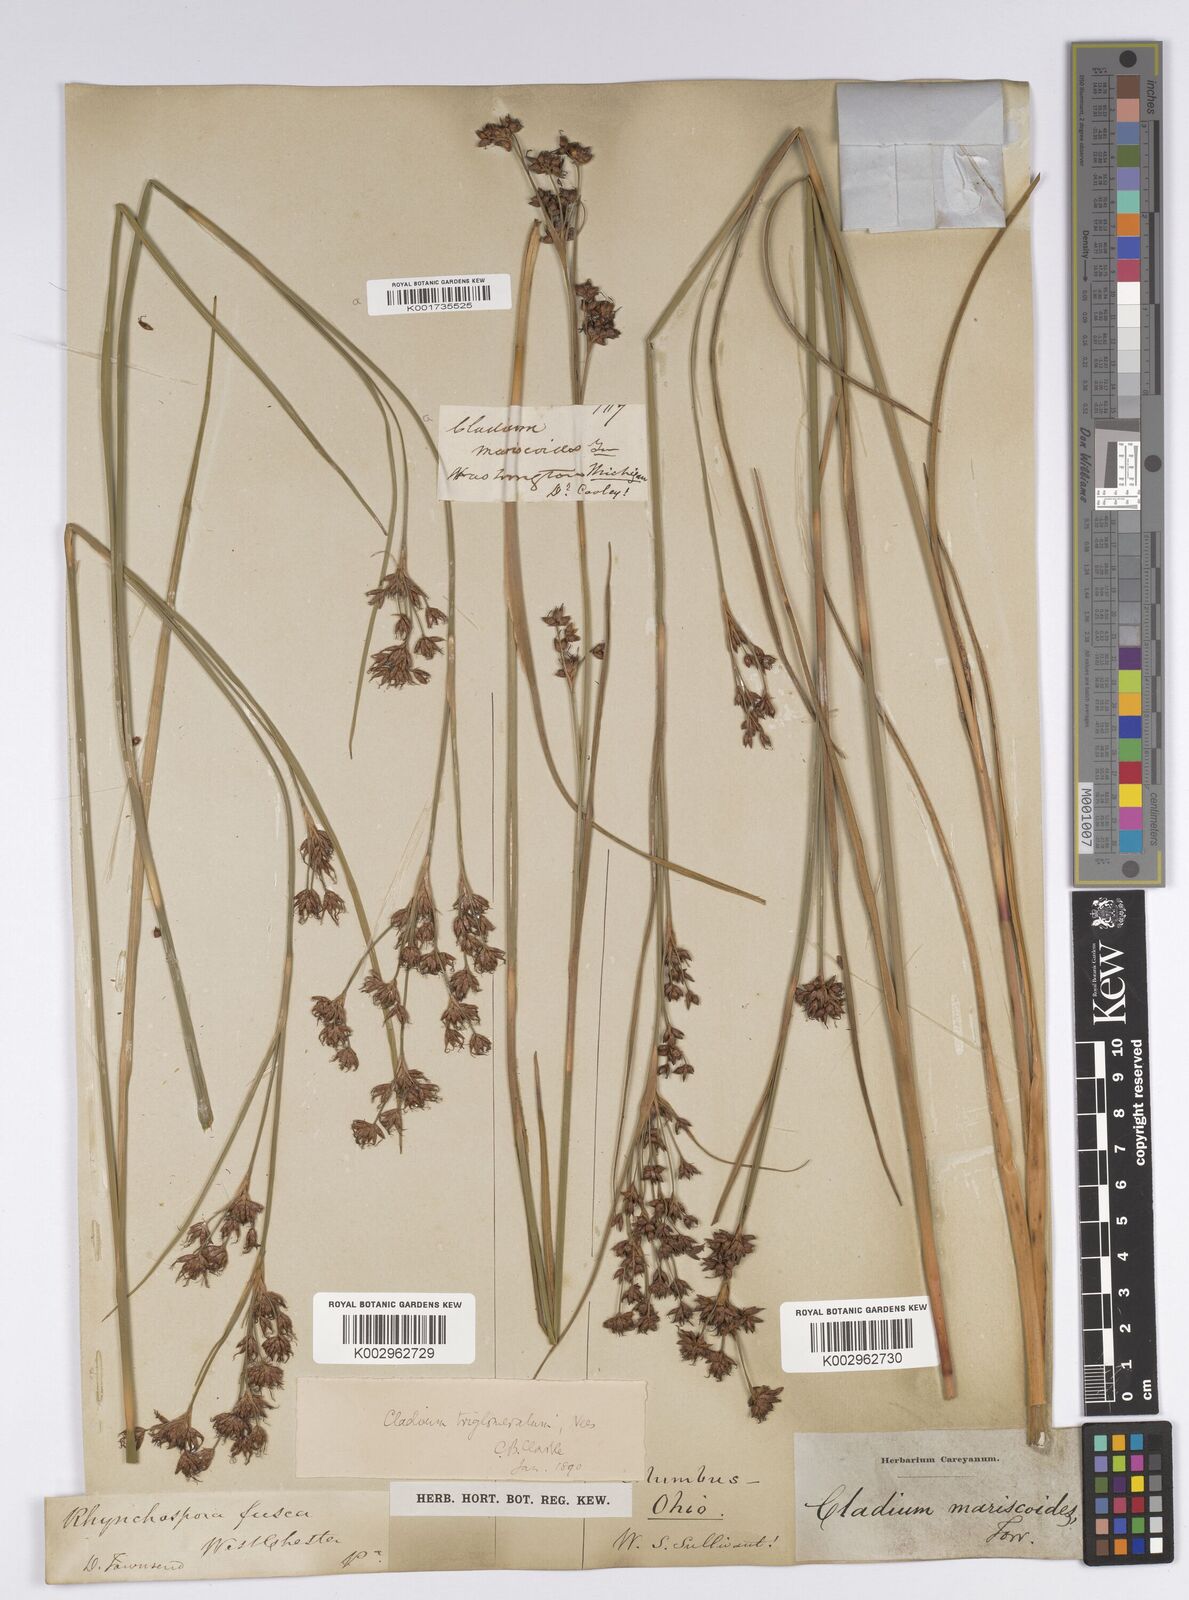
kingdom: Plantae
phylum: Tracheophyta
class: Liliopsida
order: Poales
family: Cyperaceae
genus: Cladium
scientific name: Cladium mariscoides
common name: Smooth sawgrass
